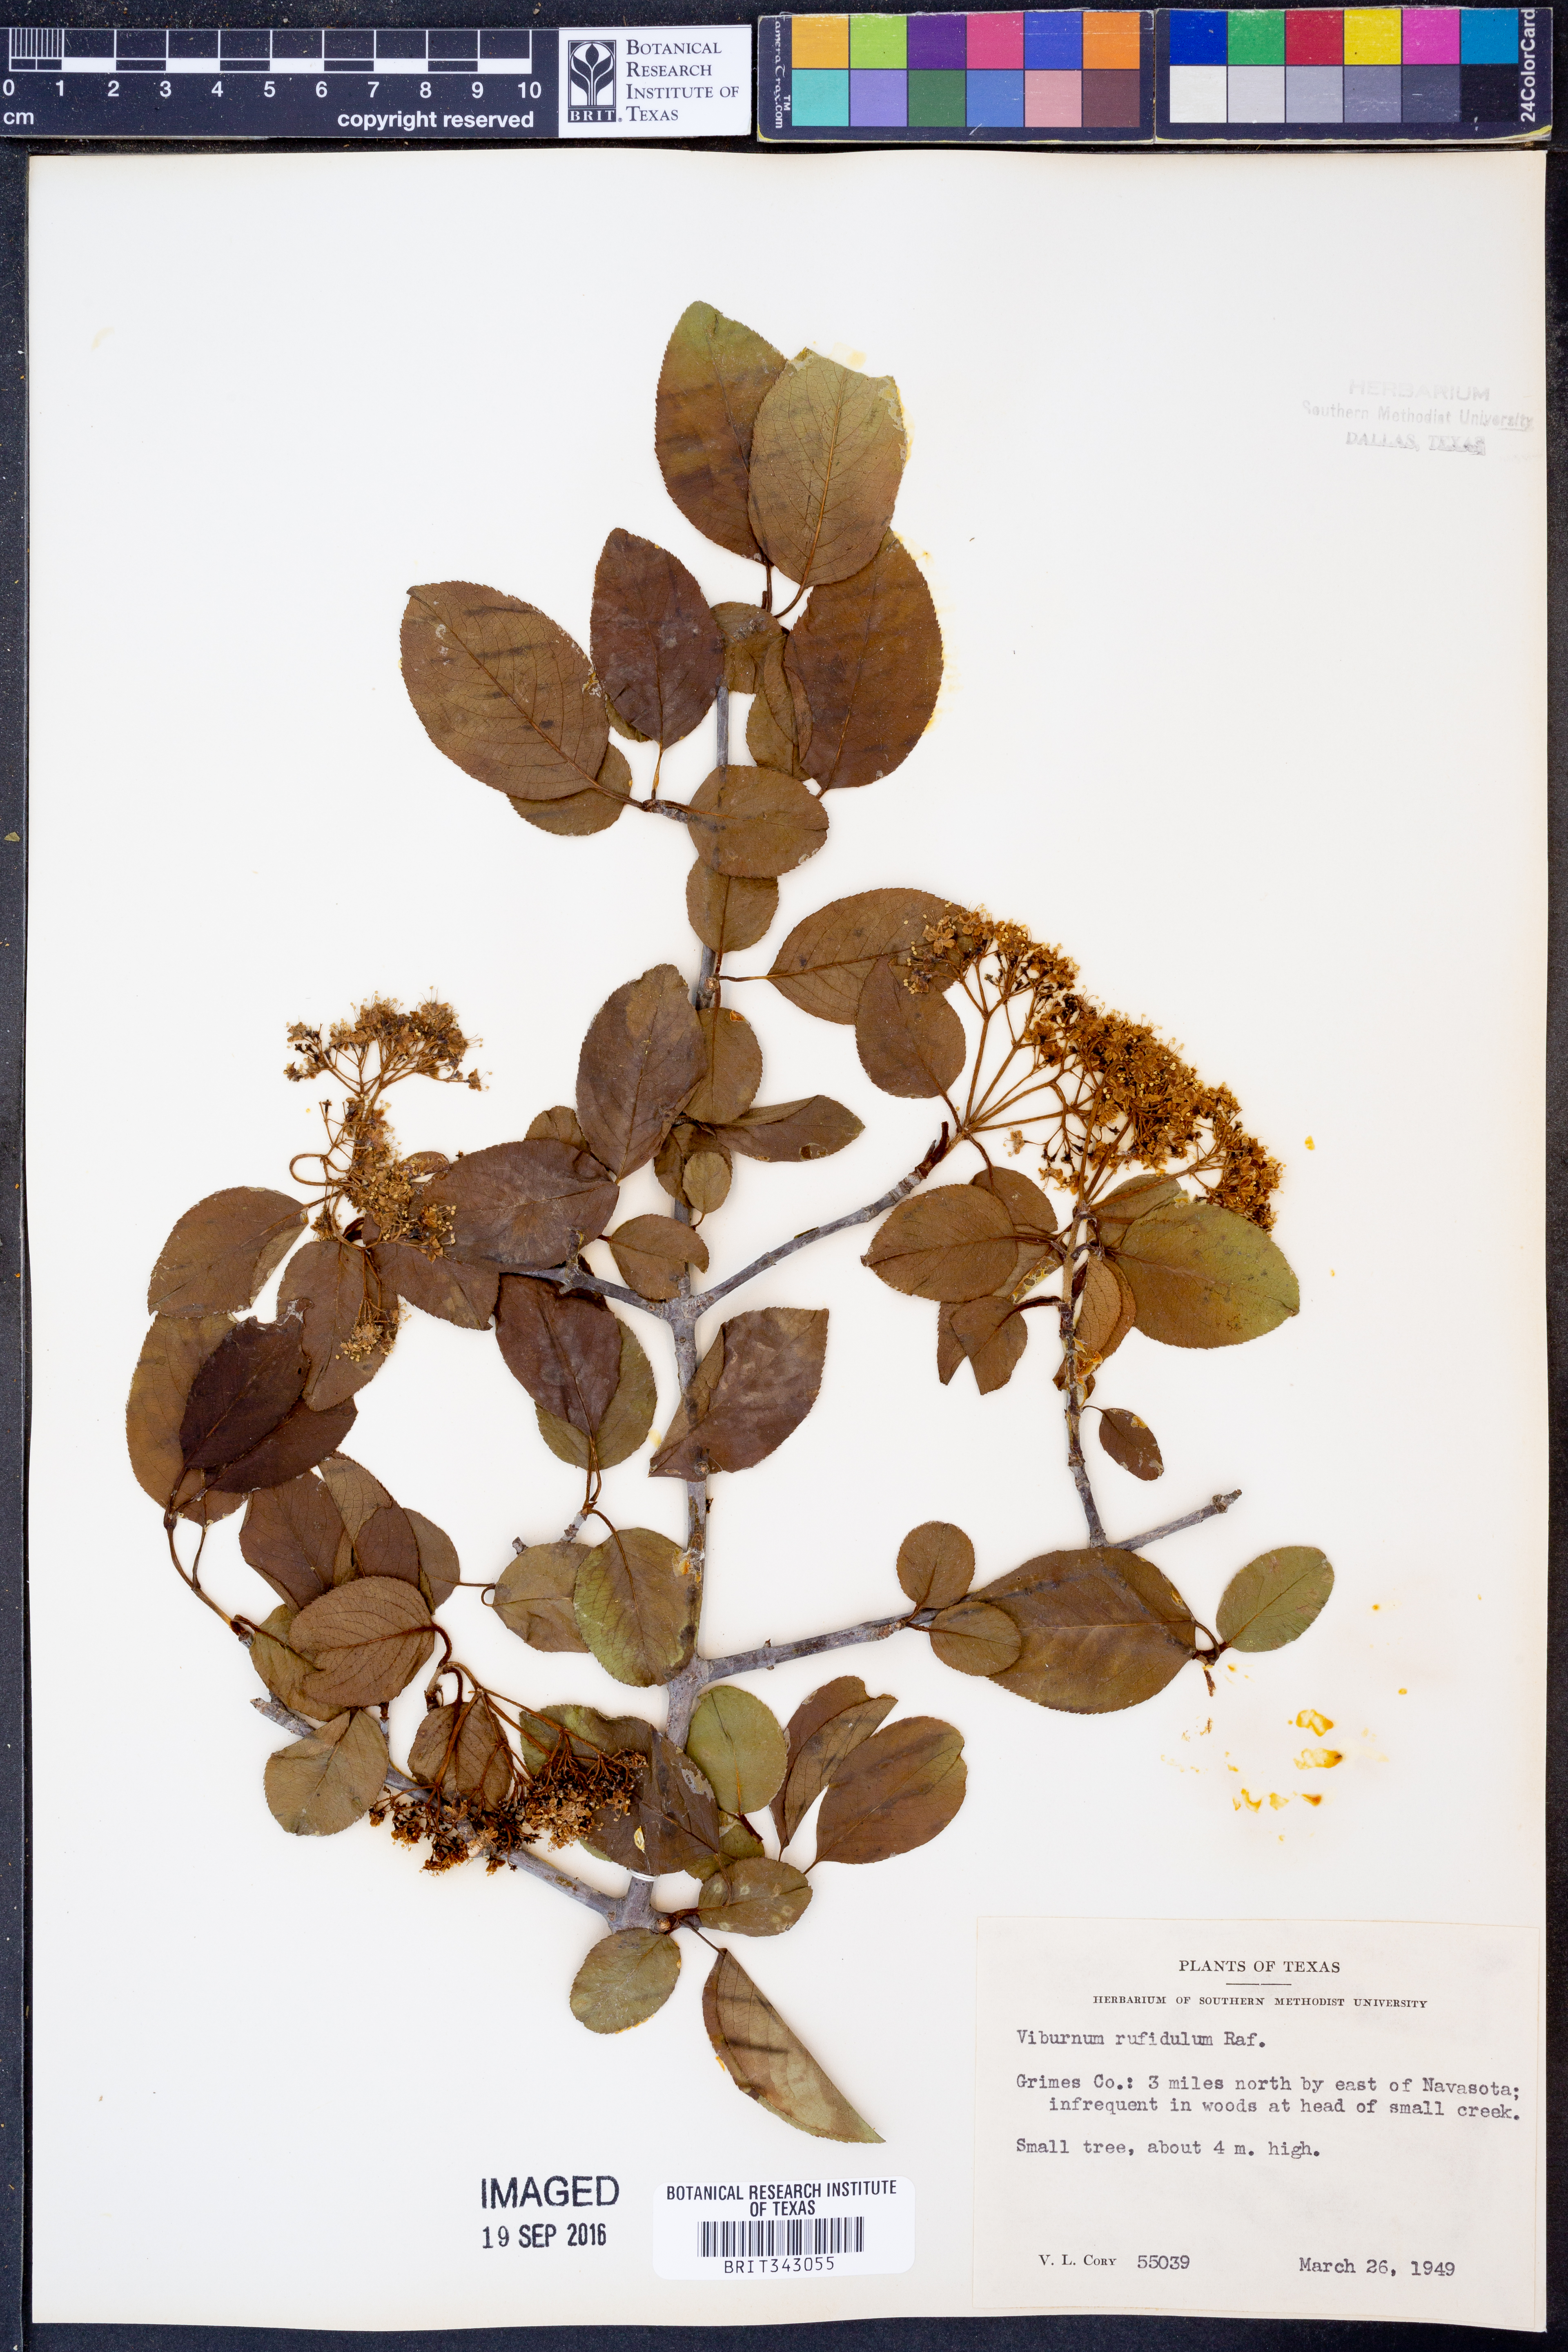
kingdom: Plantae
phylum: Tracheophyta
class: Magnoliopsida
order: Dipsacales
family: Viburnaceae
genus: Viburnum
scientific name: Viburnum rufidulum
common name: Blue haw
